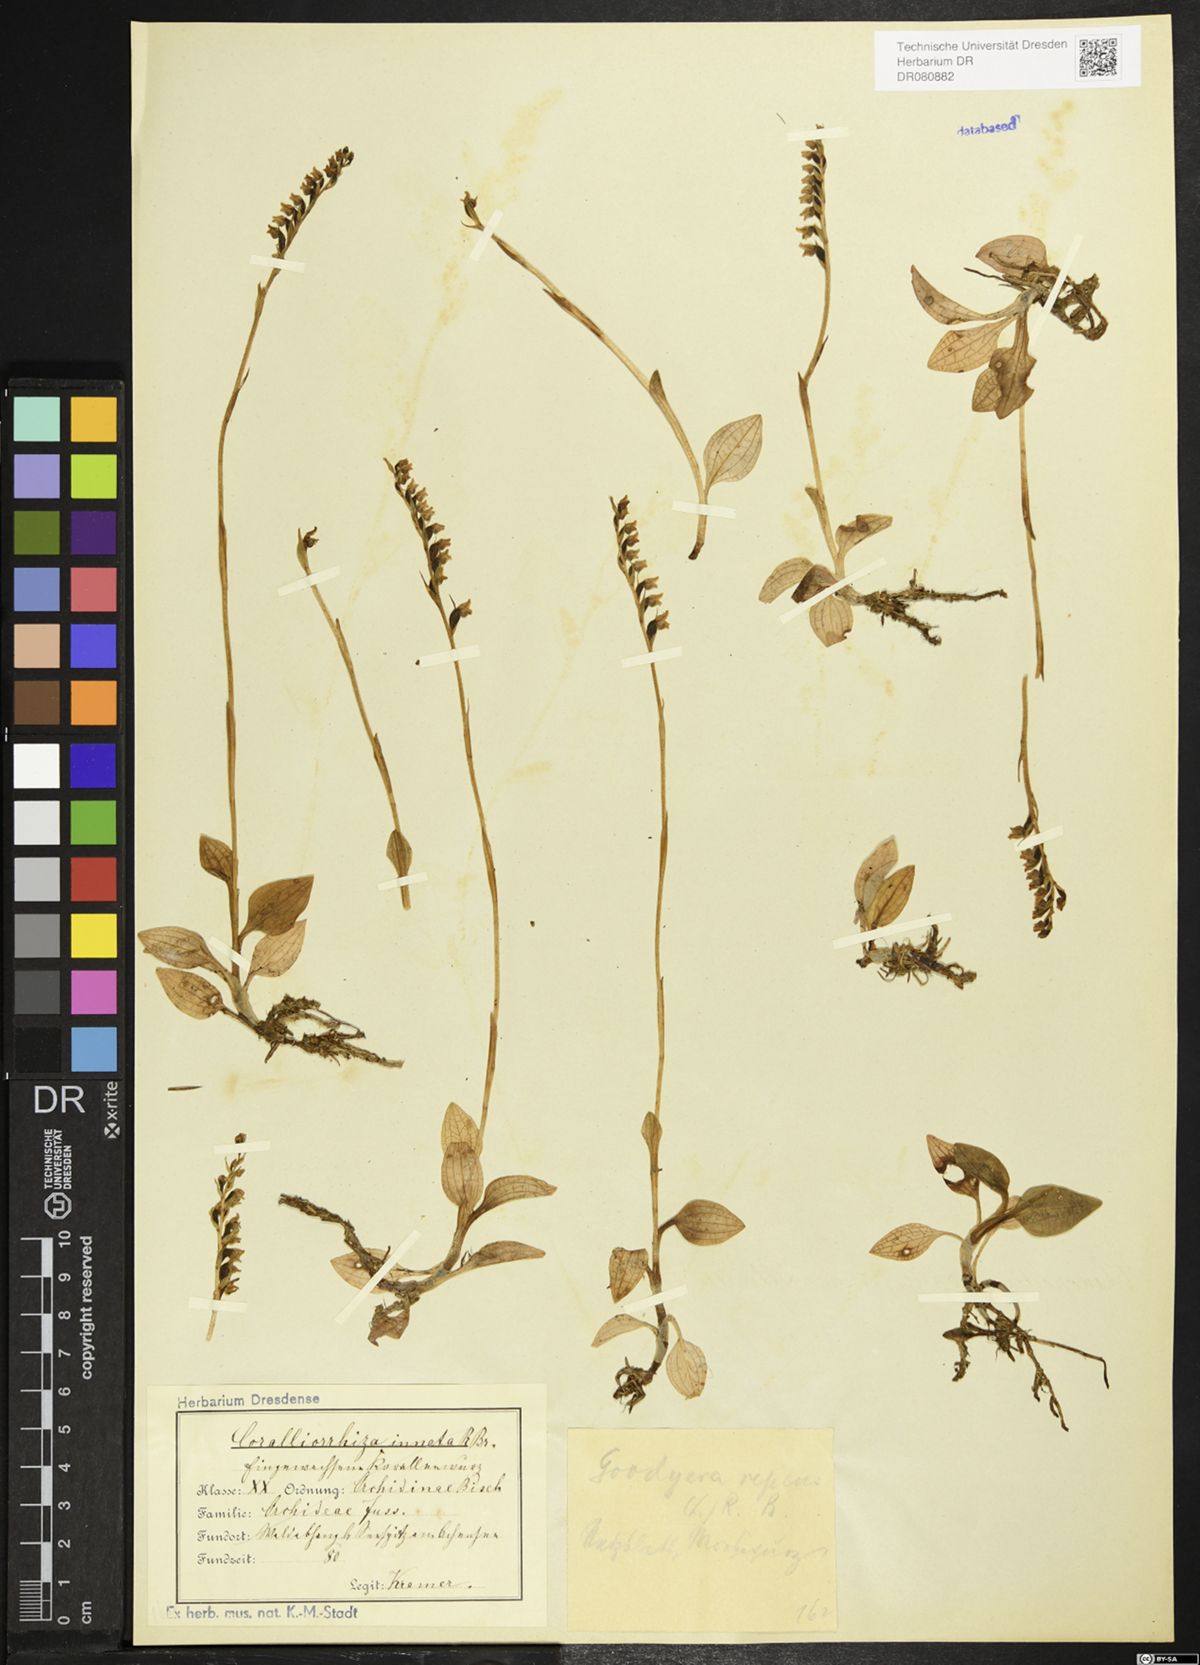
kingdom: Plantae
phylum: Tracheophyta
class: Liliopsida
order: Asparagales
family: Orchidaceae
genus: Goodyera
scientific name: Goodyera repens
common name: Creeping lady's-tresses
